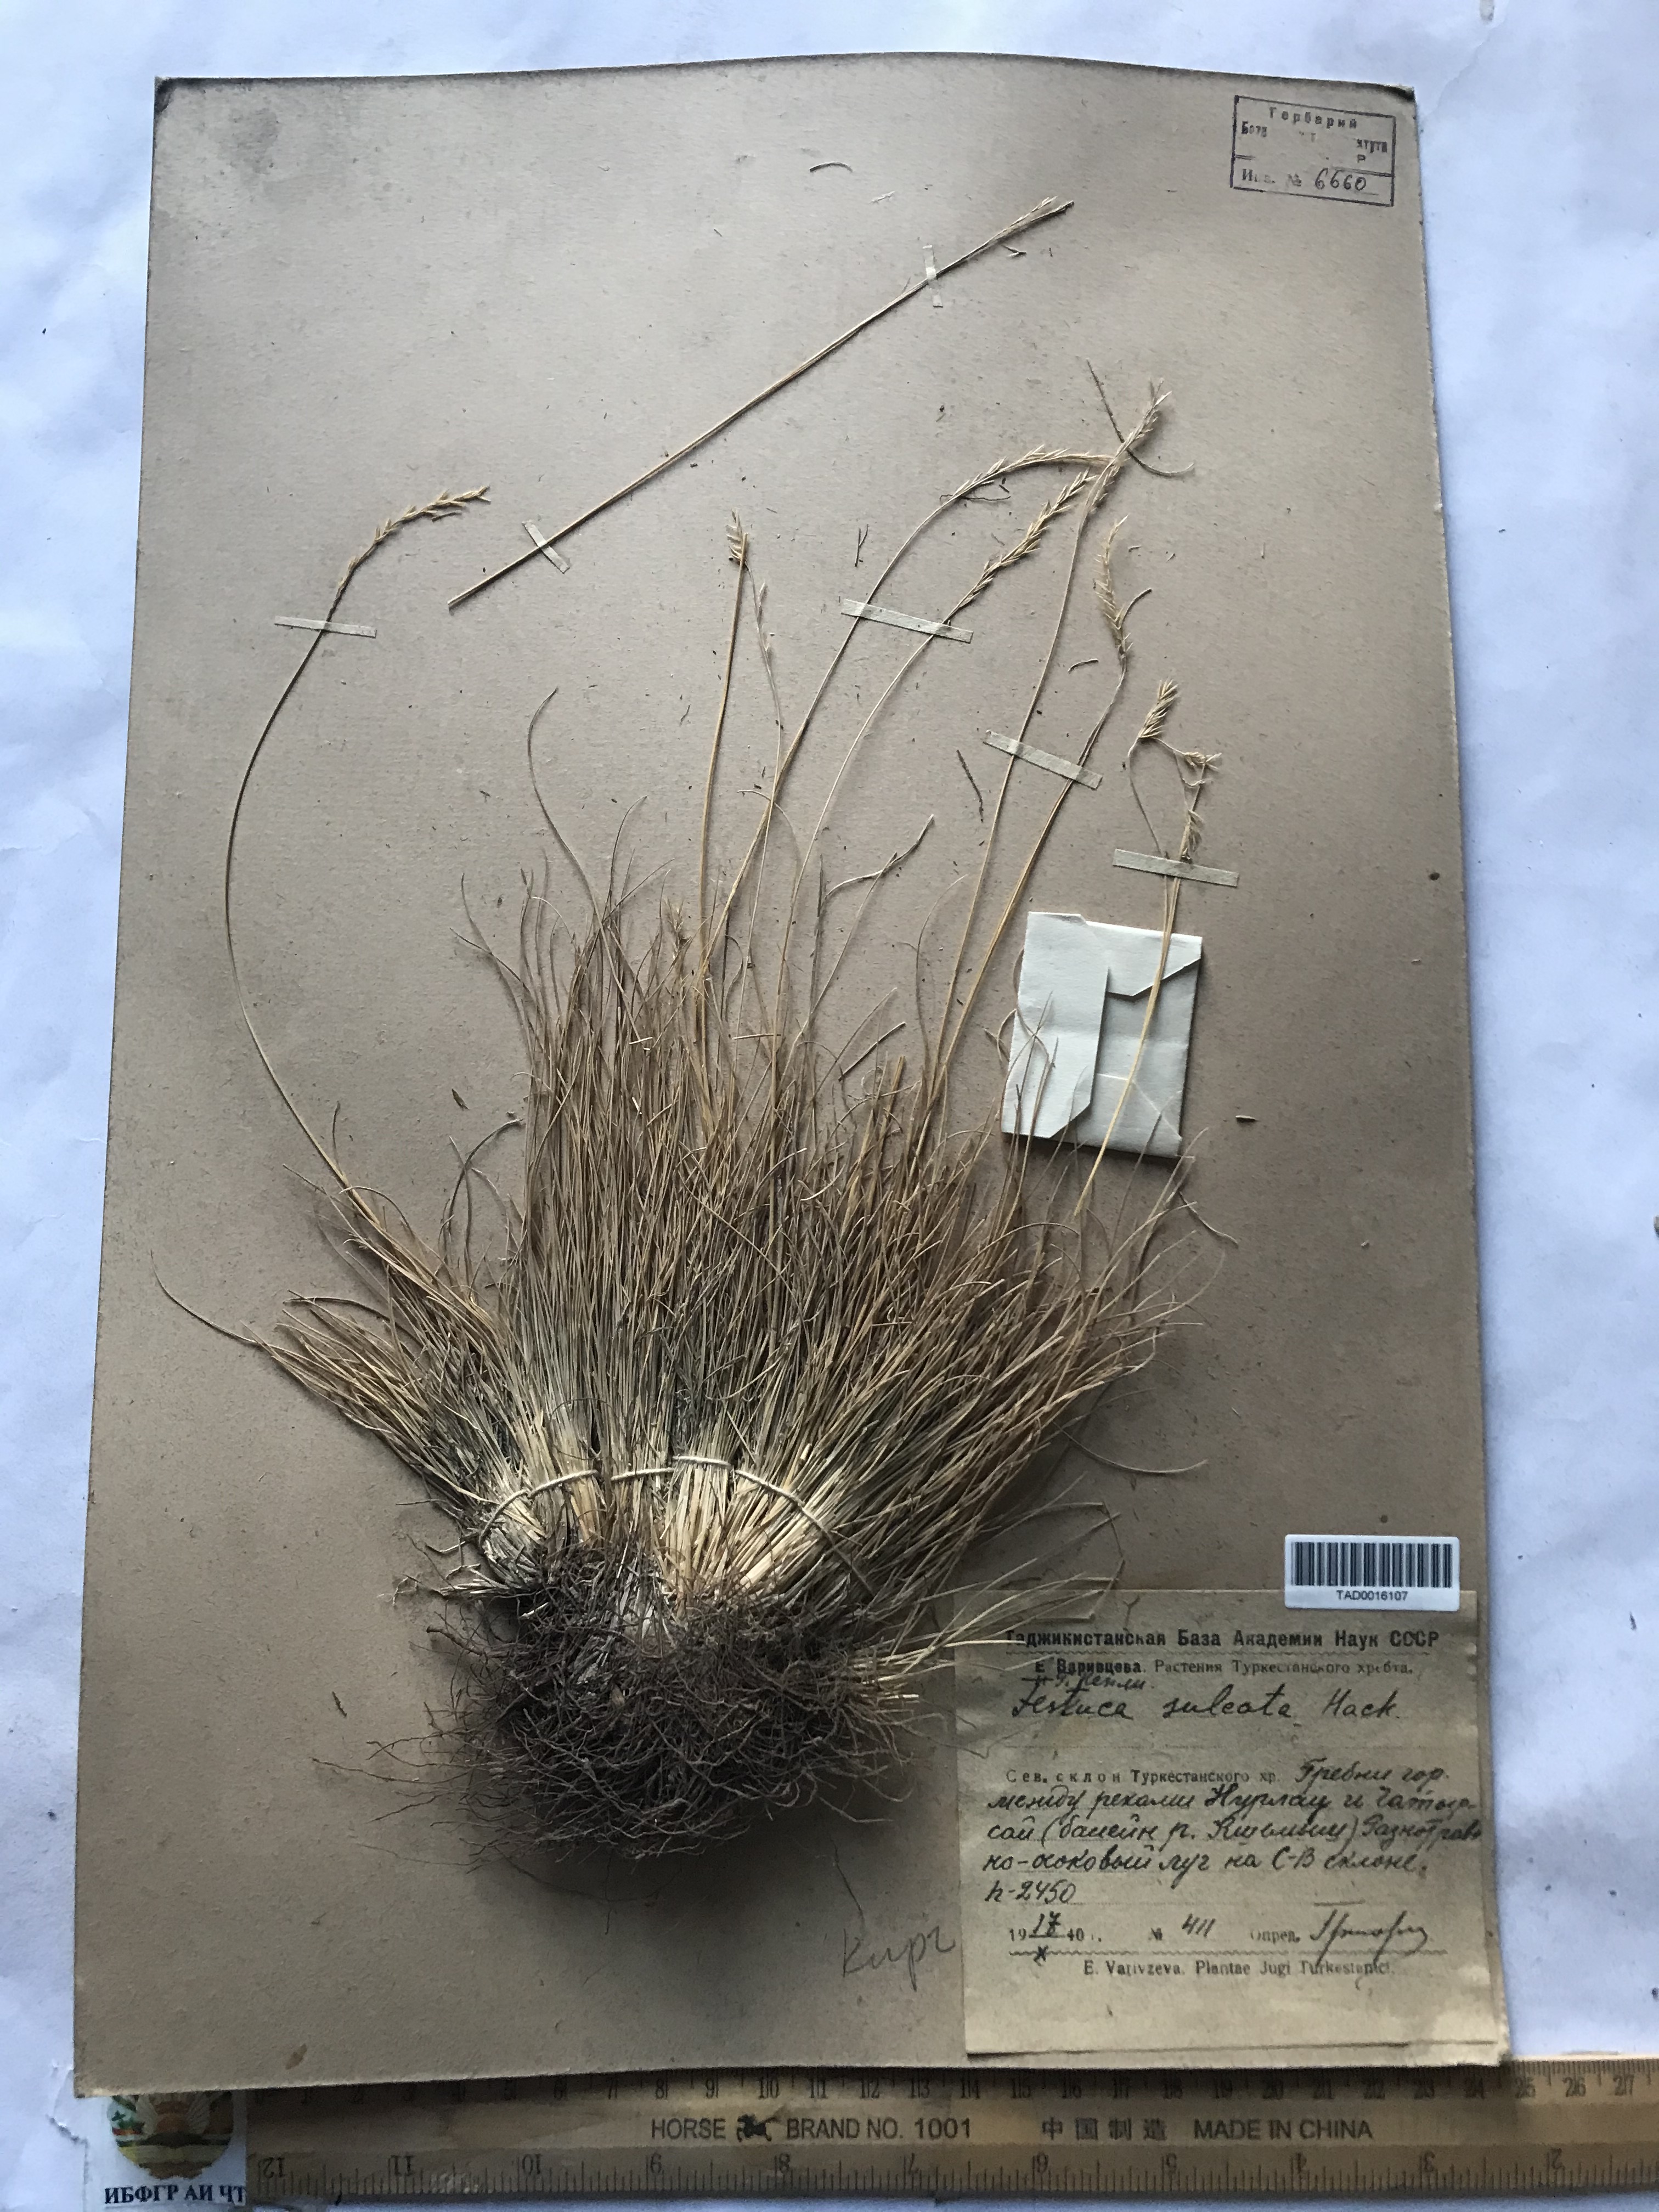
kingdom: Plantae
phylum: Tracheophyta
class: Liliopsida
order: Poales
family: Poaceae
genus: Festuca
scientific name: Festuca sulcata
